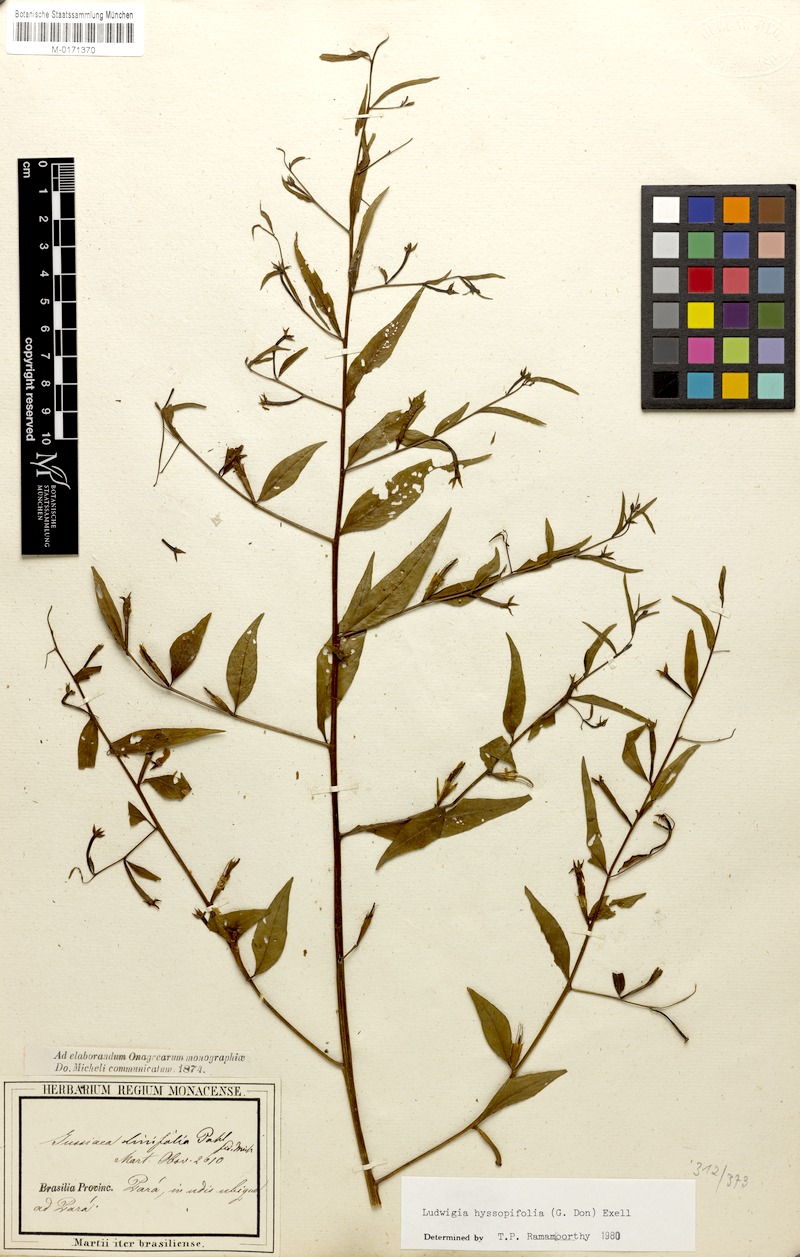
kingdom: Plantae
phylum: Tracheophyta
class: Magnoliopsida
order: Myrtales
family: Onagraceae
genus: Ludwigia
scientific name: Ludwigia hyssopifolia
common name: Linear leaf water primrose
